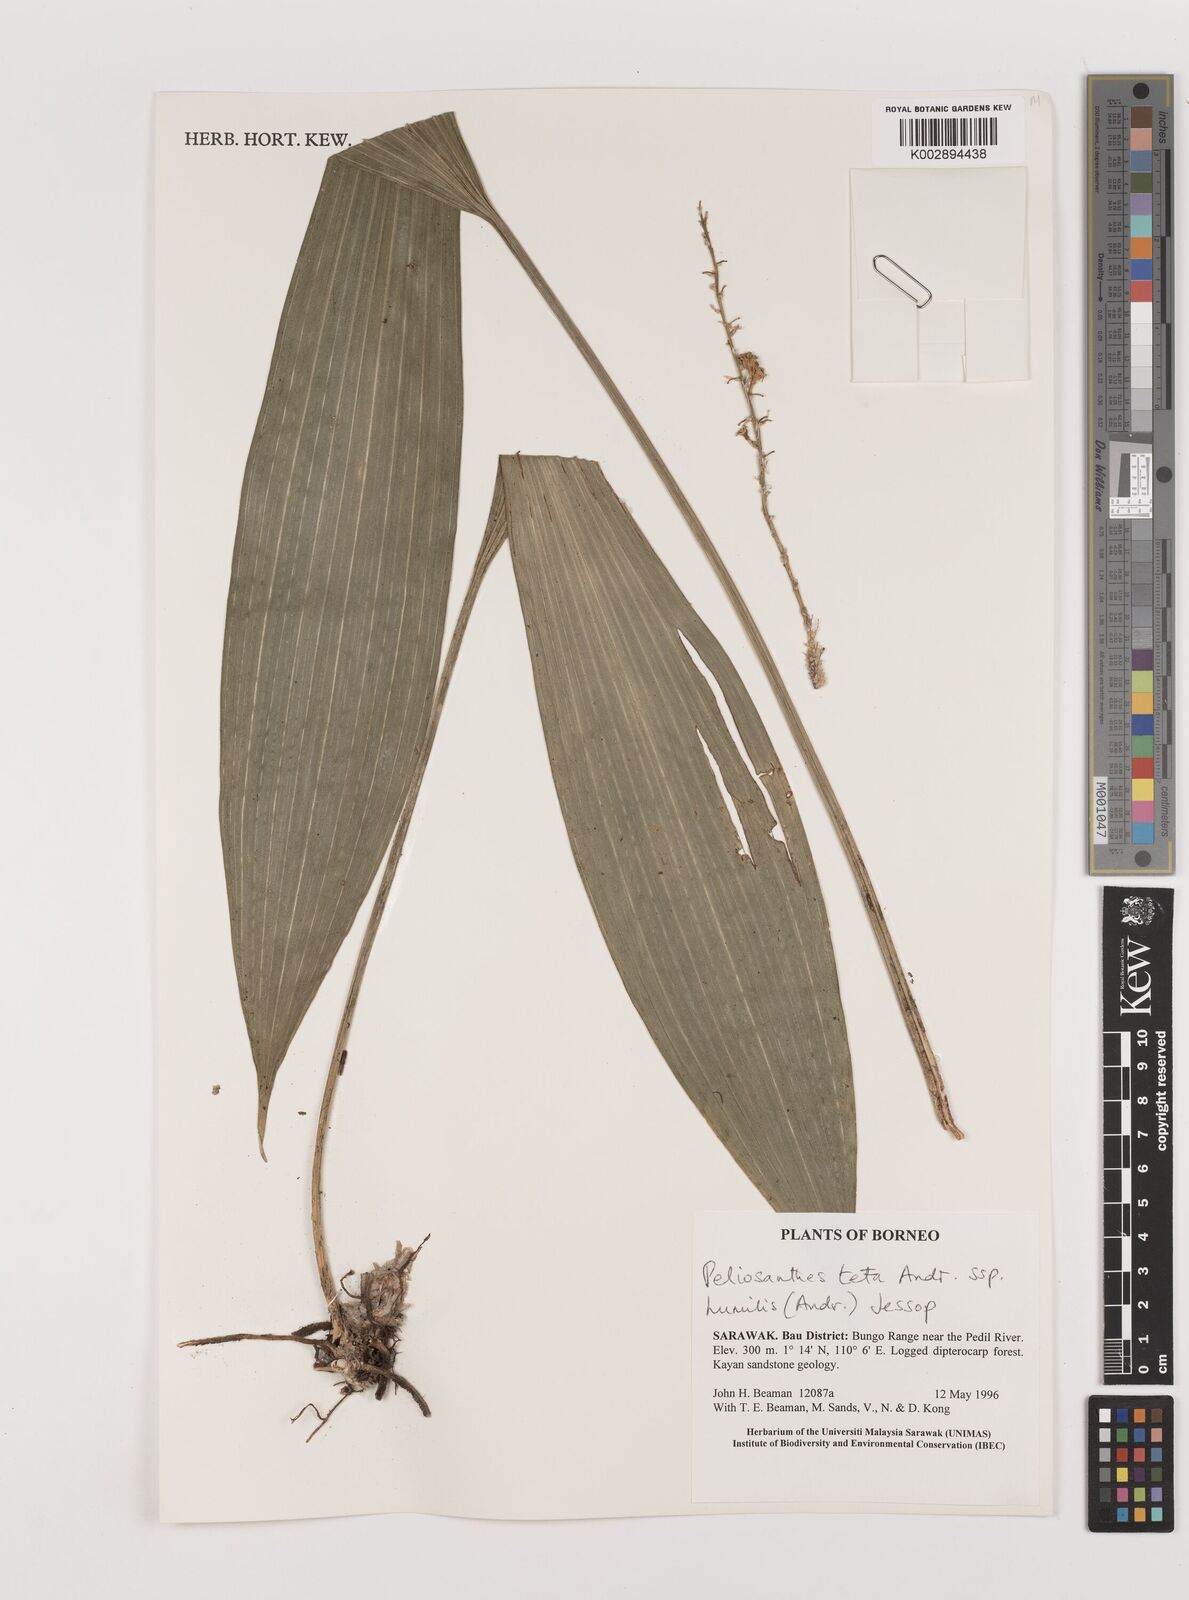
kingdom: Plantae
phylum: Tracheophyta
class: Liliopsida
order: Asparagales
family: Asparagaceae
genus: Peliosanthes
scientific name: Peliosanthes teta
